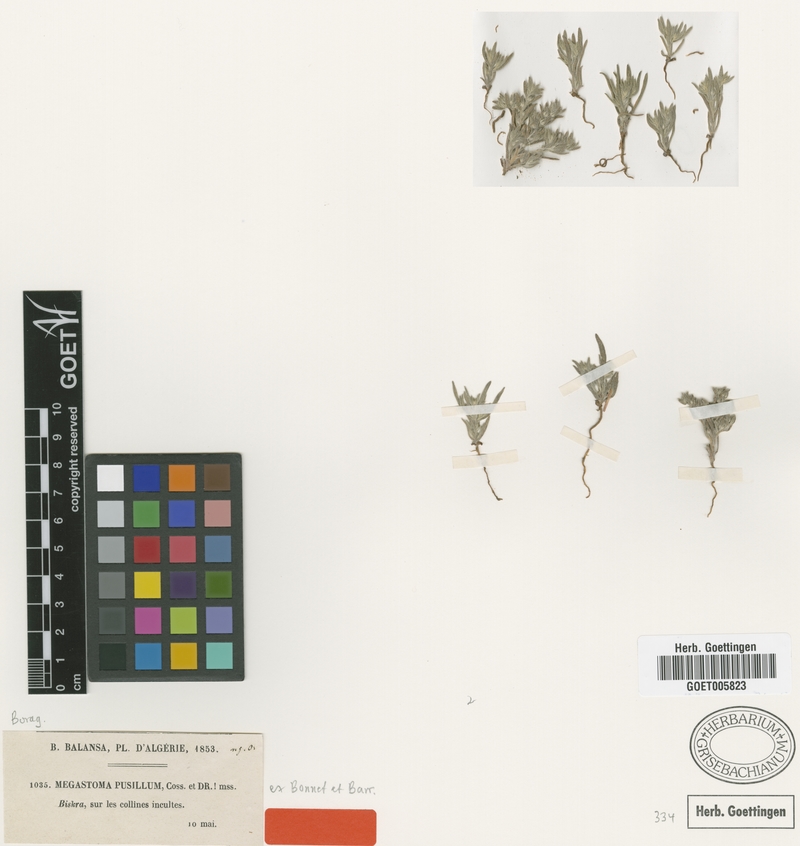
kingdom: Plantae
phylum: Tracheophyta
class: Magnoliopsida
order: Boraginales
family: Boraginaceae
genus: Ogastemma
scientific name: Ogastemma pusillum
